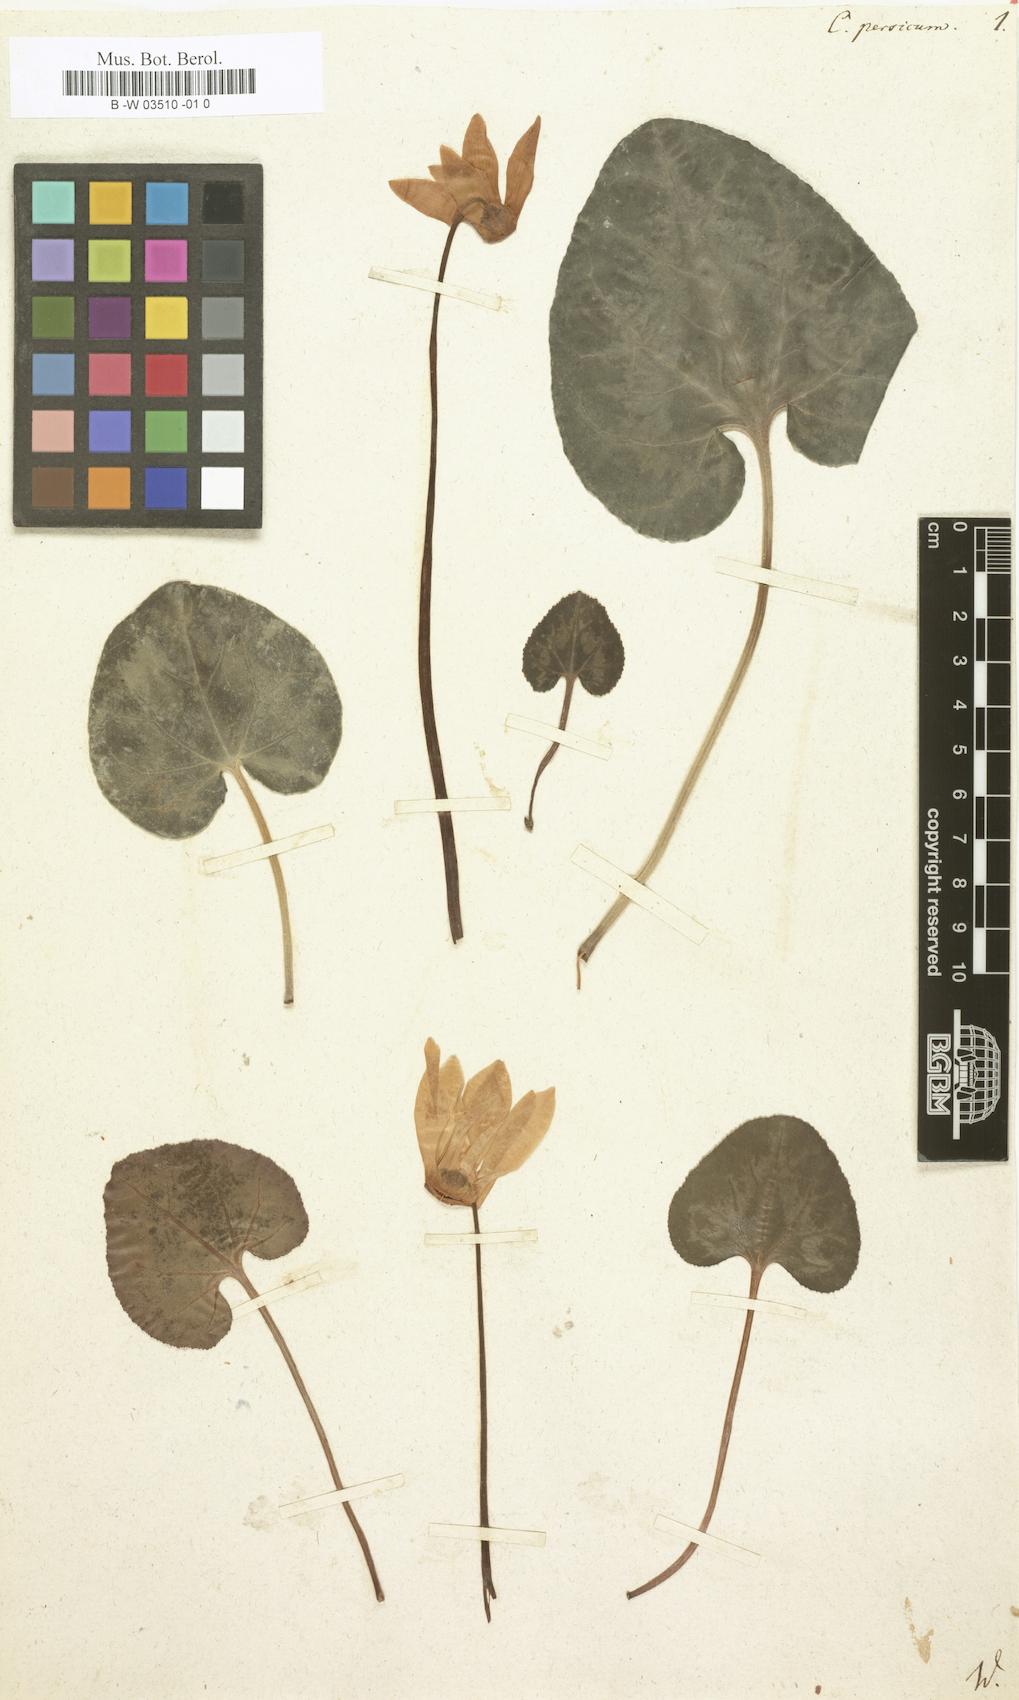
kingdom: Plantae
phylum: Tracheophyta
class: Magnoliopsida
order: Ericales
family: Primulaceae
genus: Cyclamen
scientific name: Cyclamen persicum
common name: Florist's cyclamen
